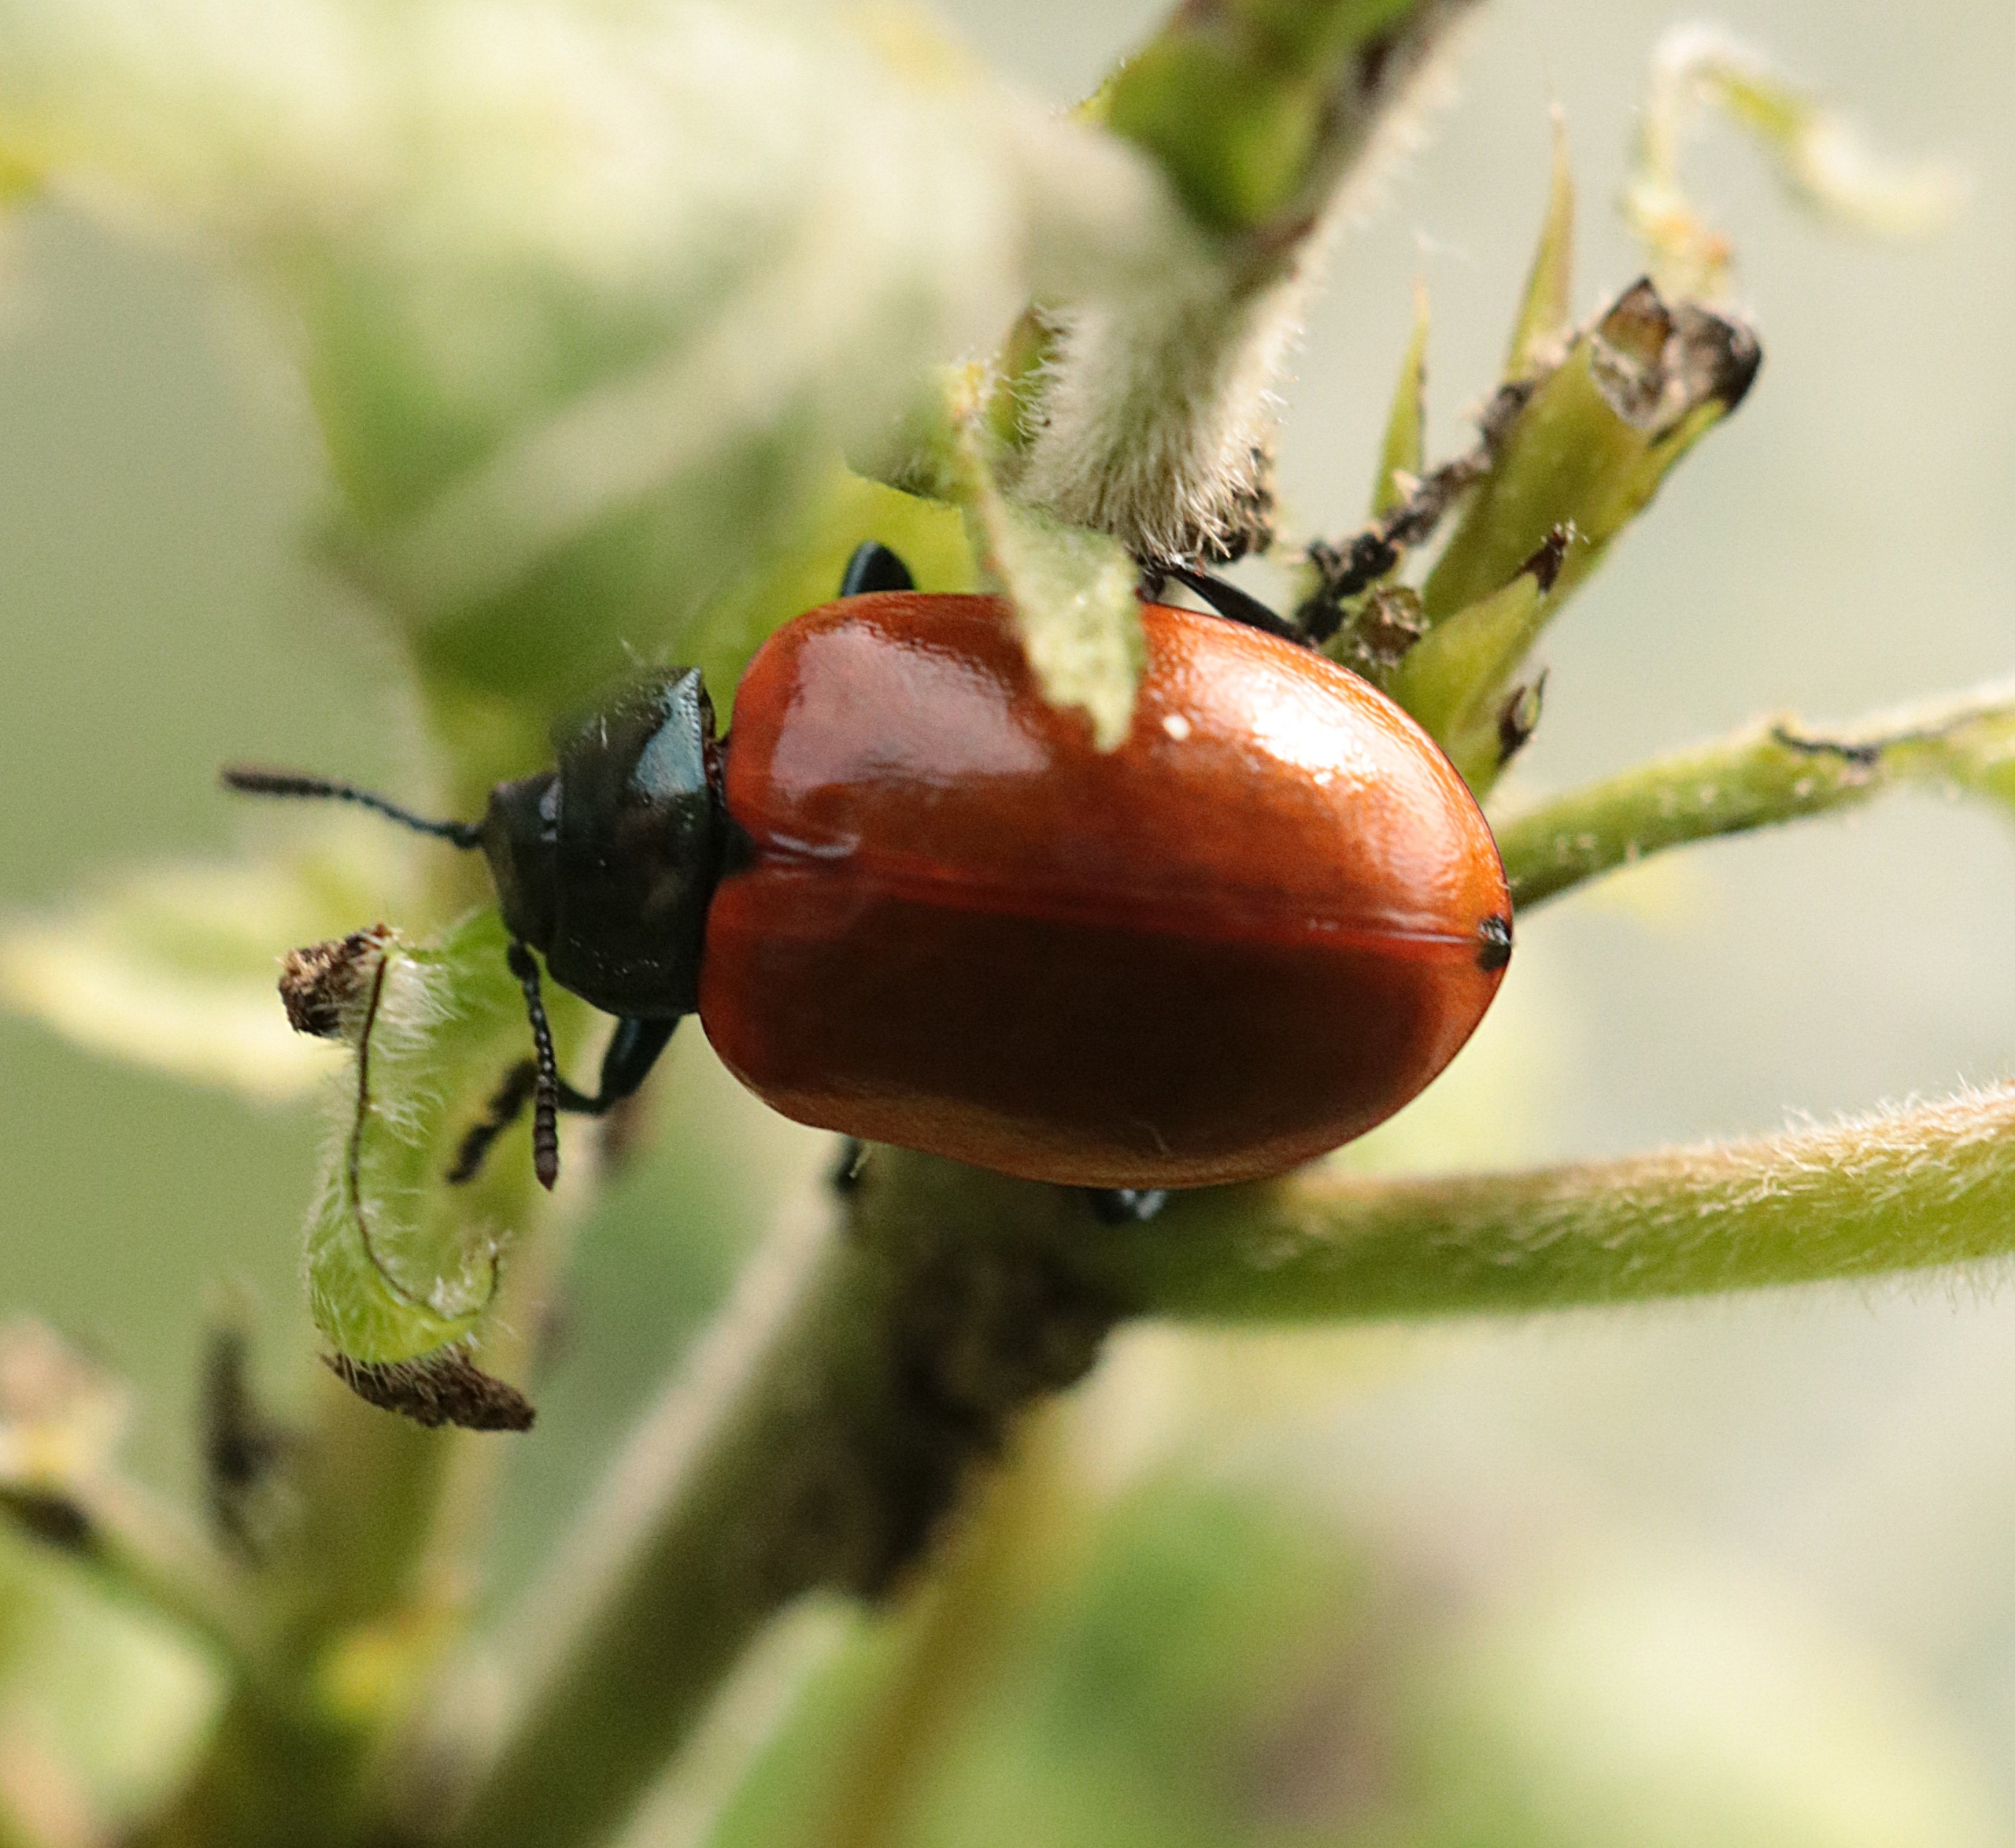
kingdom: Animalia
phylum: Arthropoda
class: Insecta
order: Coleoptera
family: Chrysomelidae
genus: Chrysomela
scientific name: Chrysomela populi
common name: Poppelbladbille
